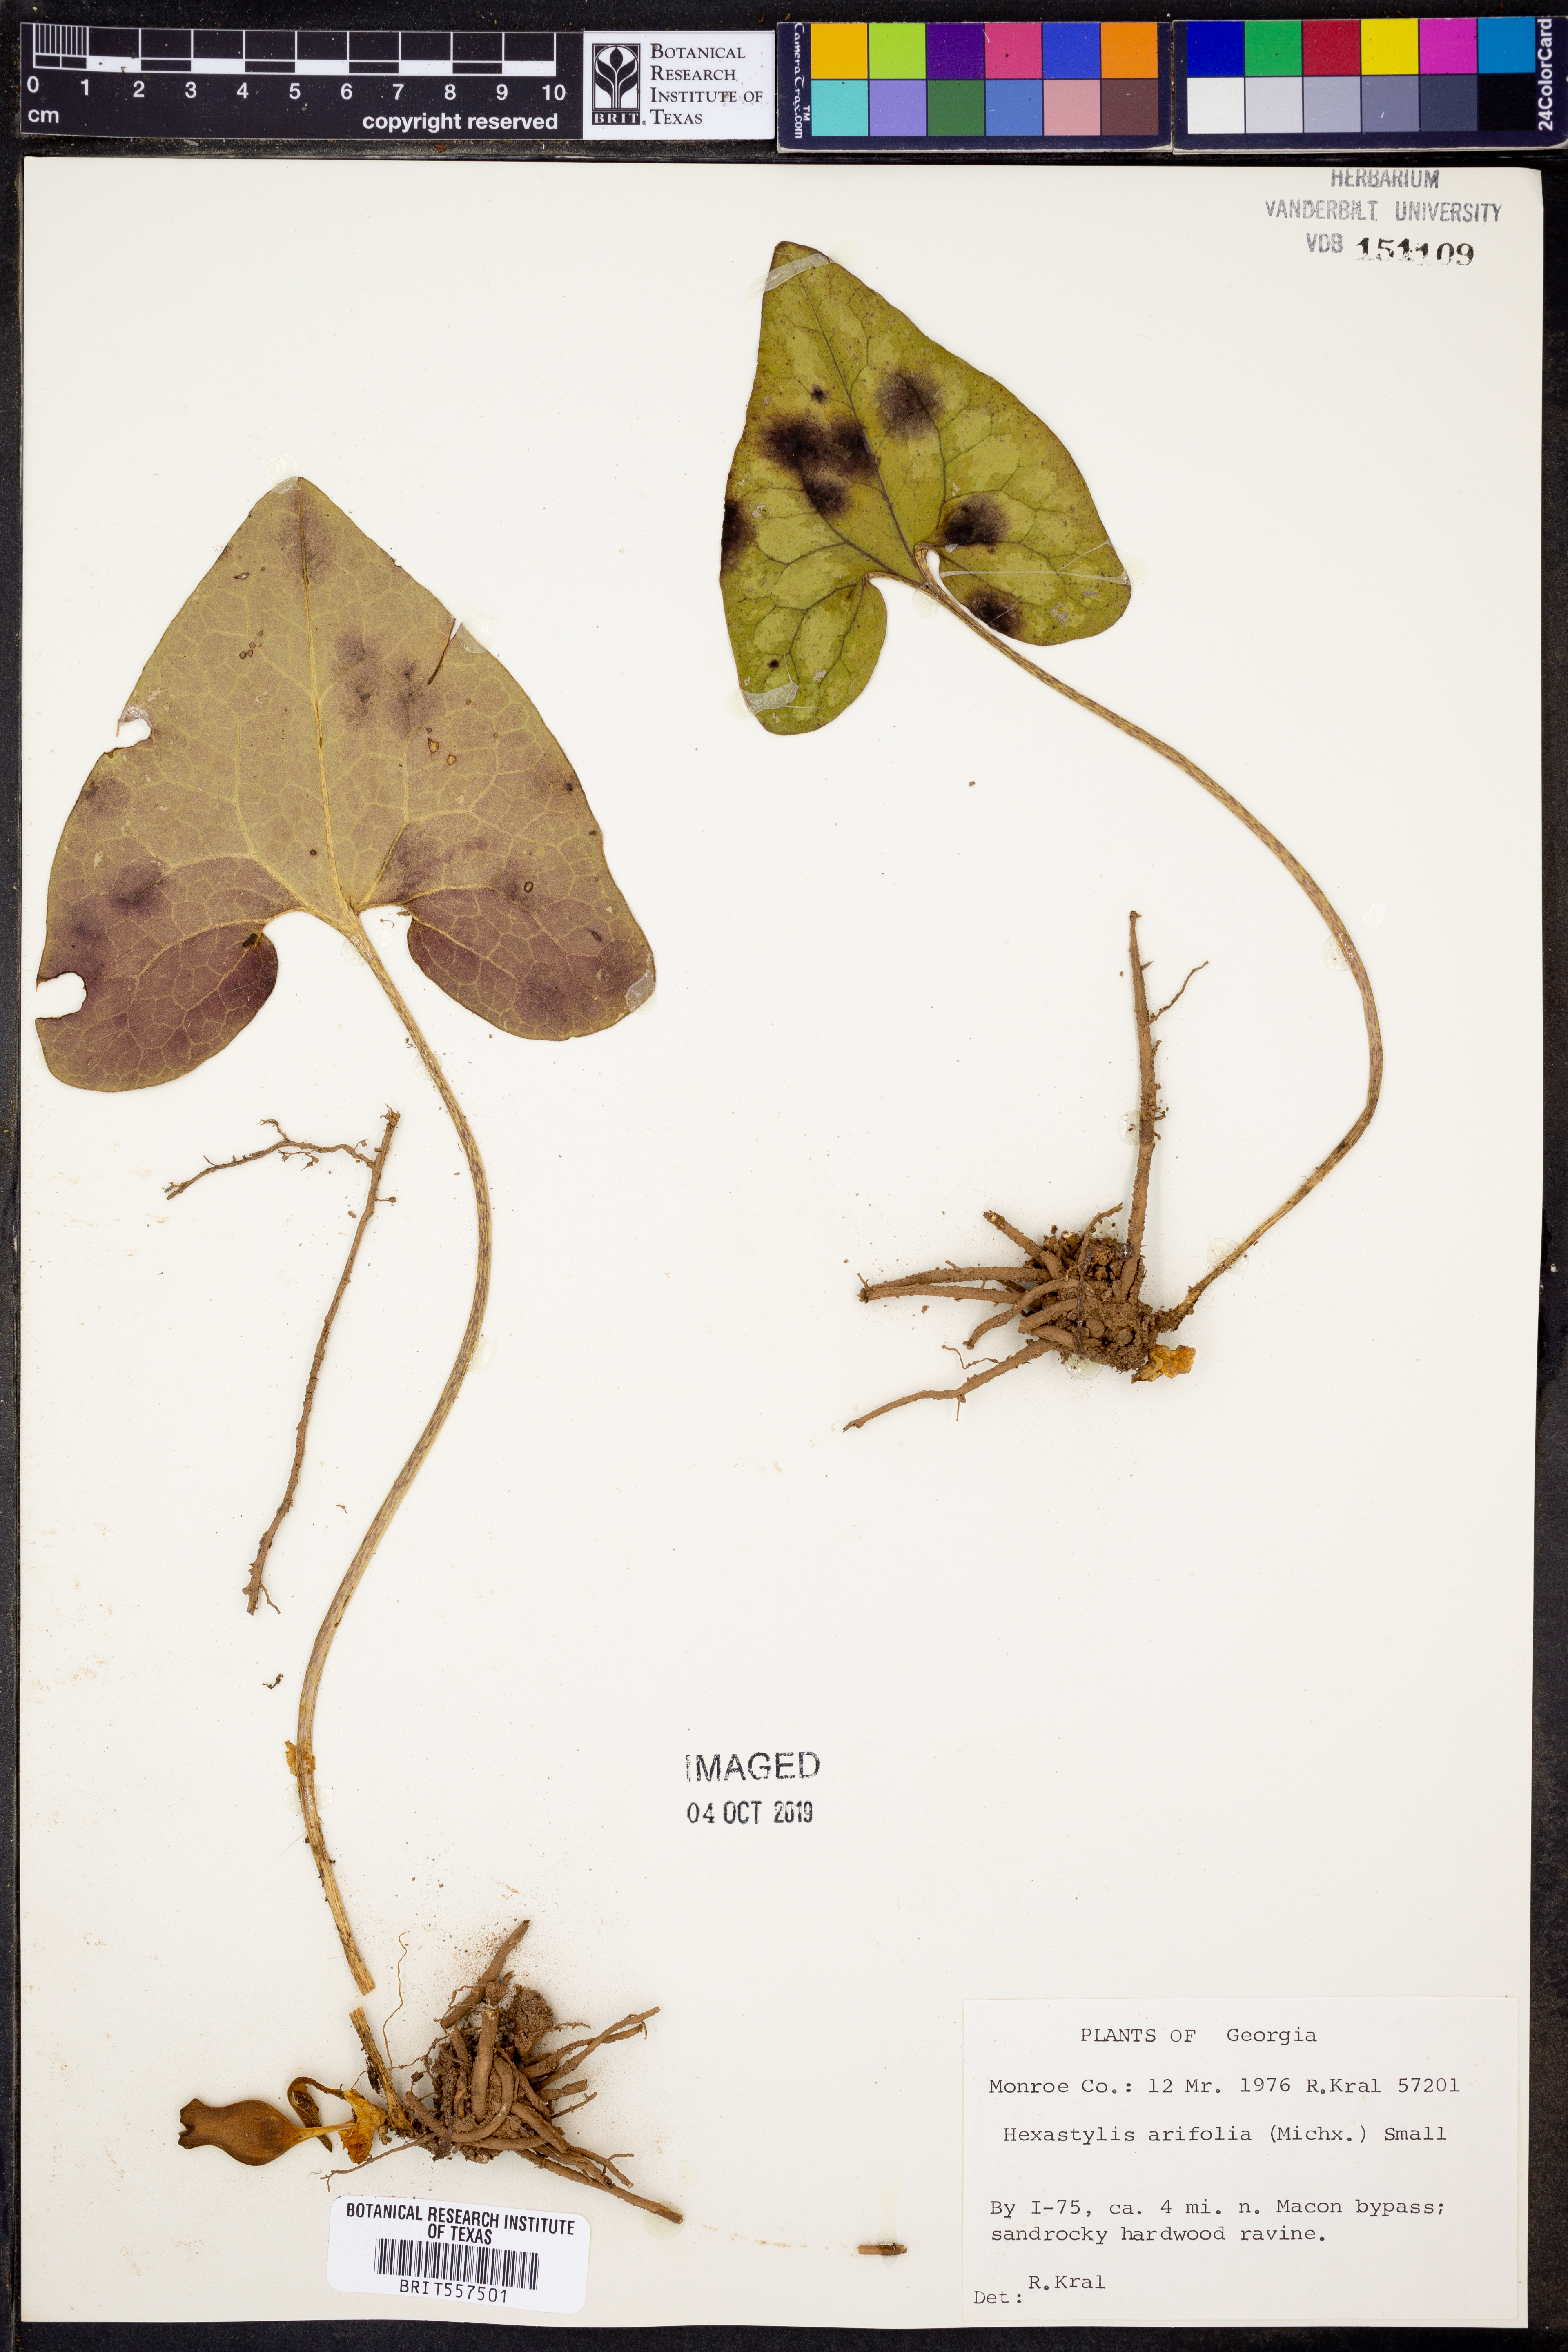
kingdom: Plantae
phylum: Tracheophyta
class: Magnoliopsida
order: Piperales
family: Aristolochiaceae
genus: Hexastylis
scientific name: Hexastylis arifolia
